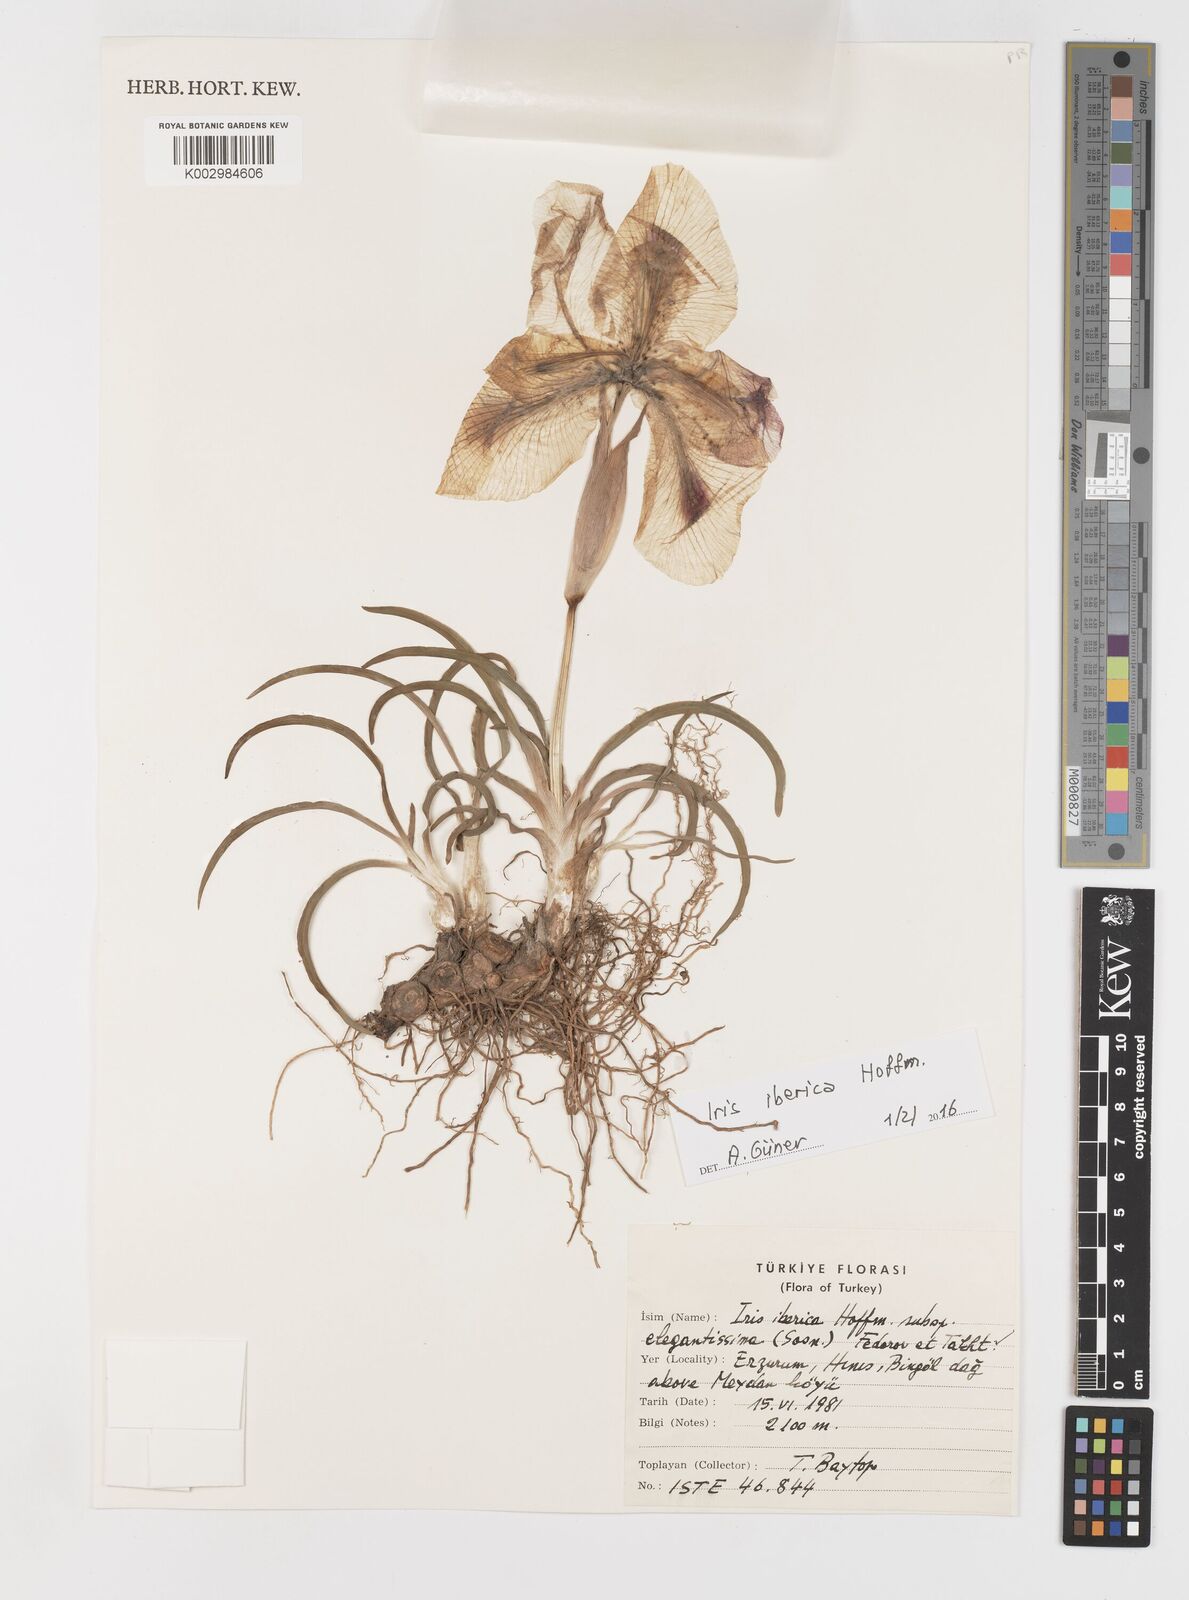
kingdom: Plantae
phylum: Tracheophyta
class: Liliopsida
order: Asparagales
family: Iridaceae
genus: Iris
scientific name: Iris iberica
